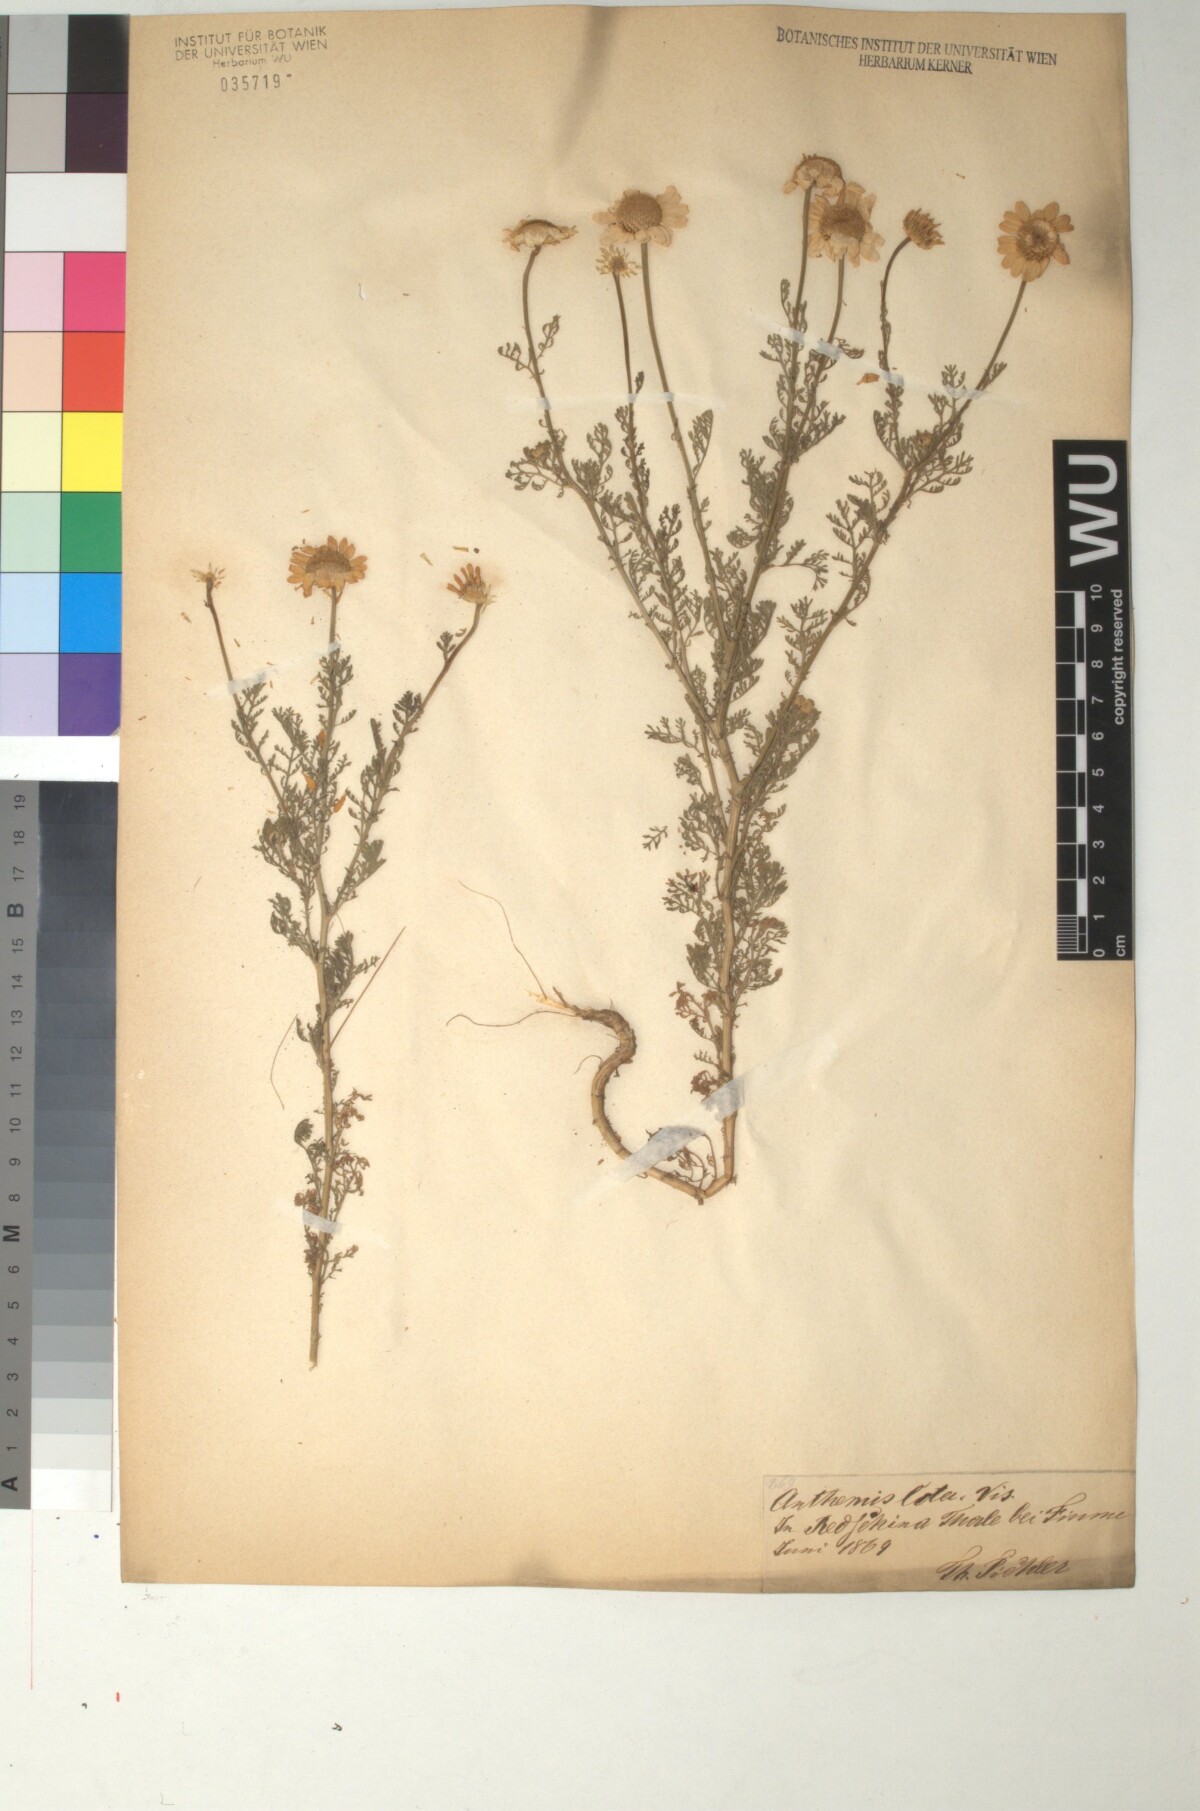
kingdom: Plantae
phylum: Tracheophyta
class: Magnoliopsida
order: Asterales
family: Asteraceae
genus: Cota
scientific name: Cota altissima
